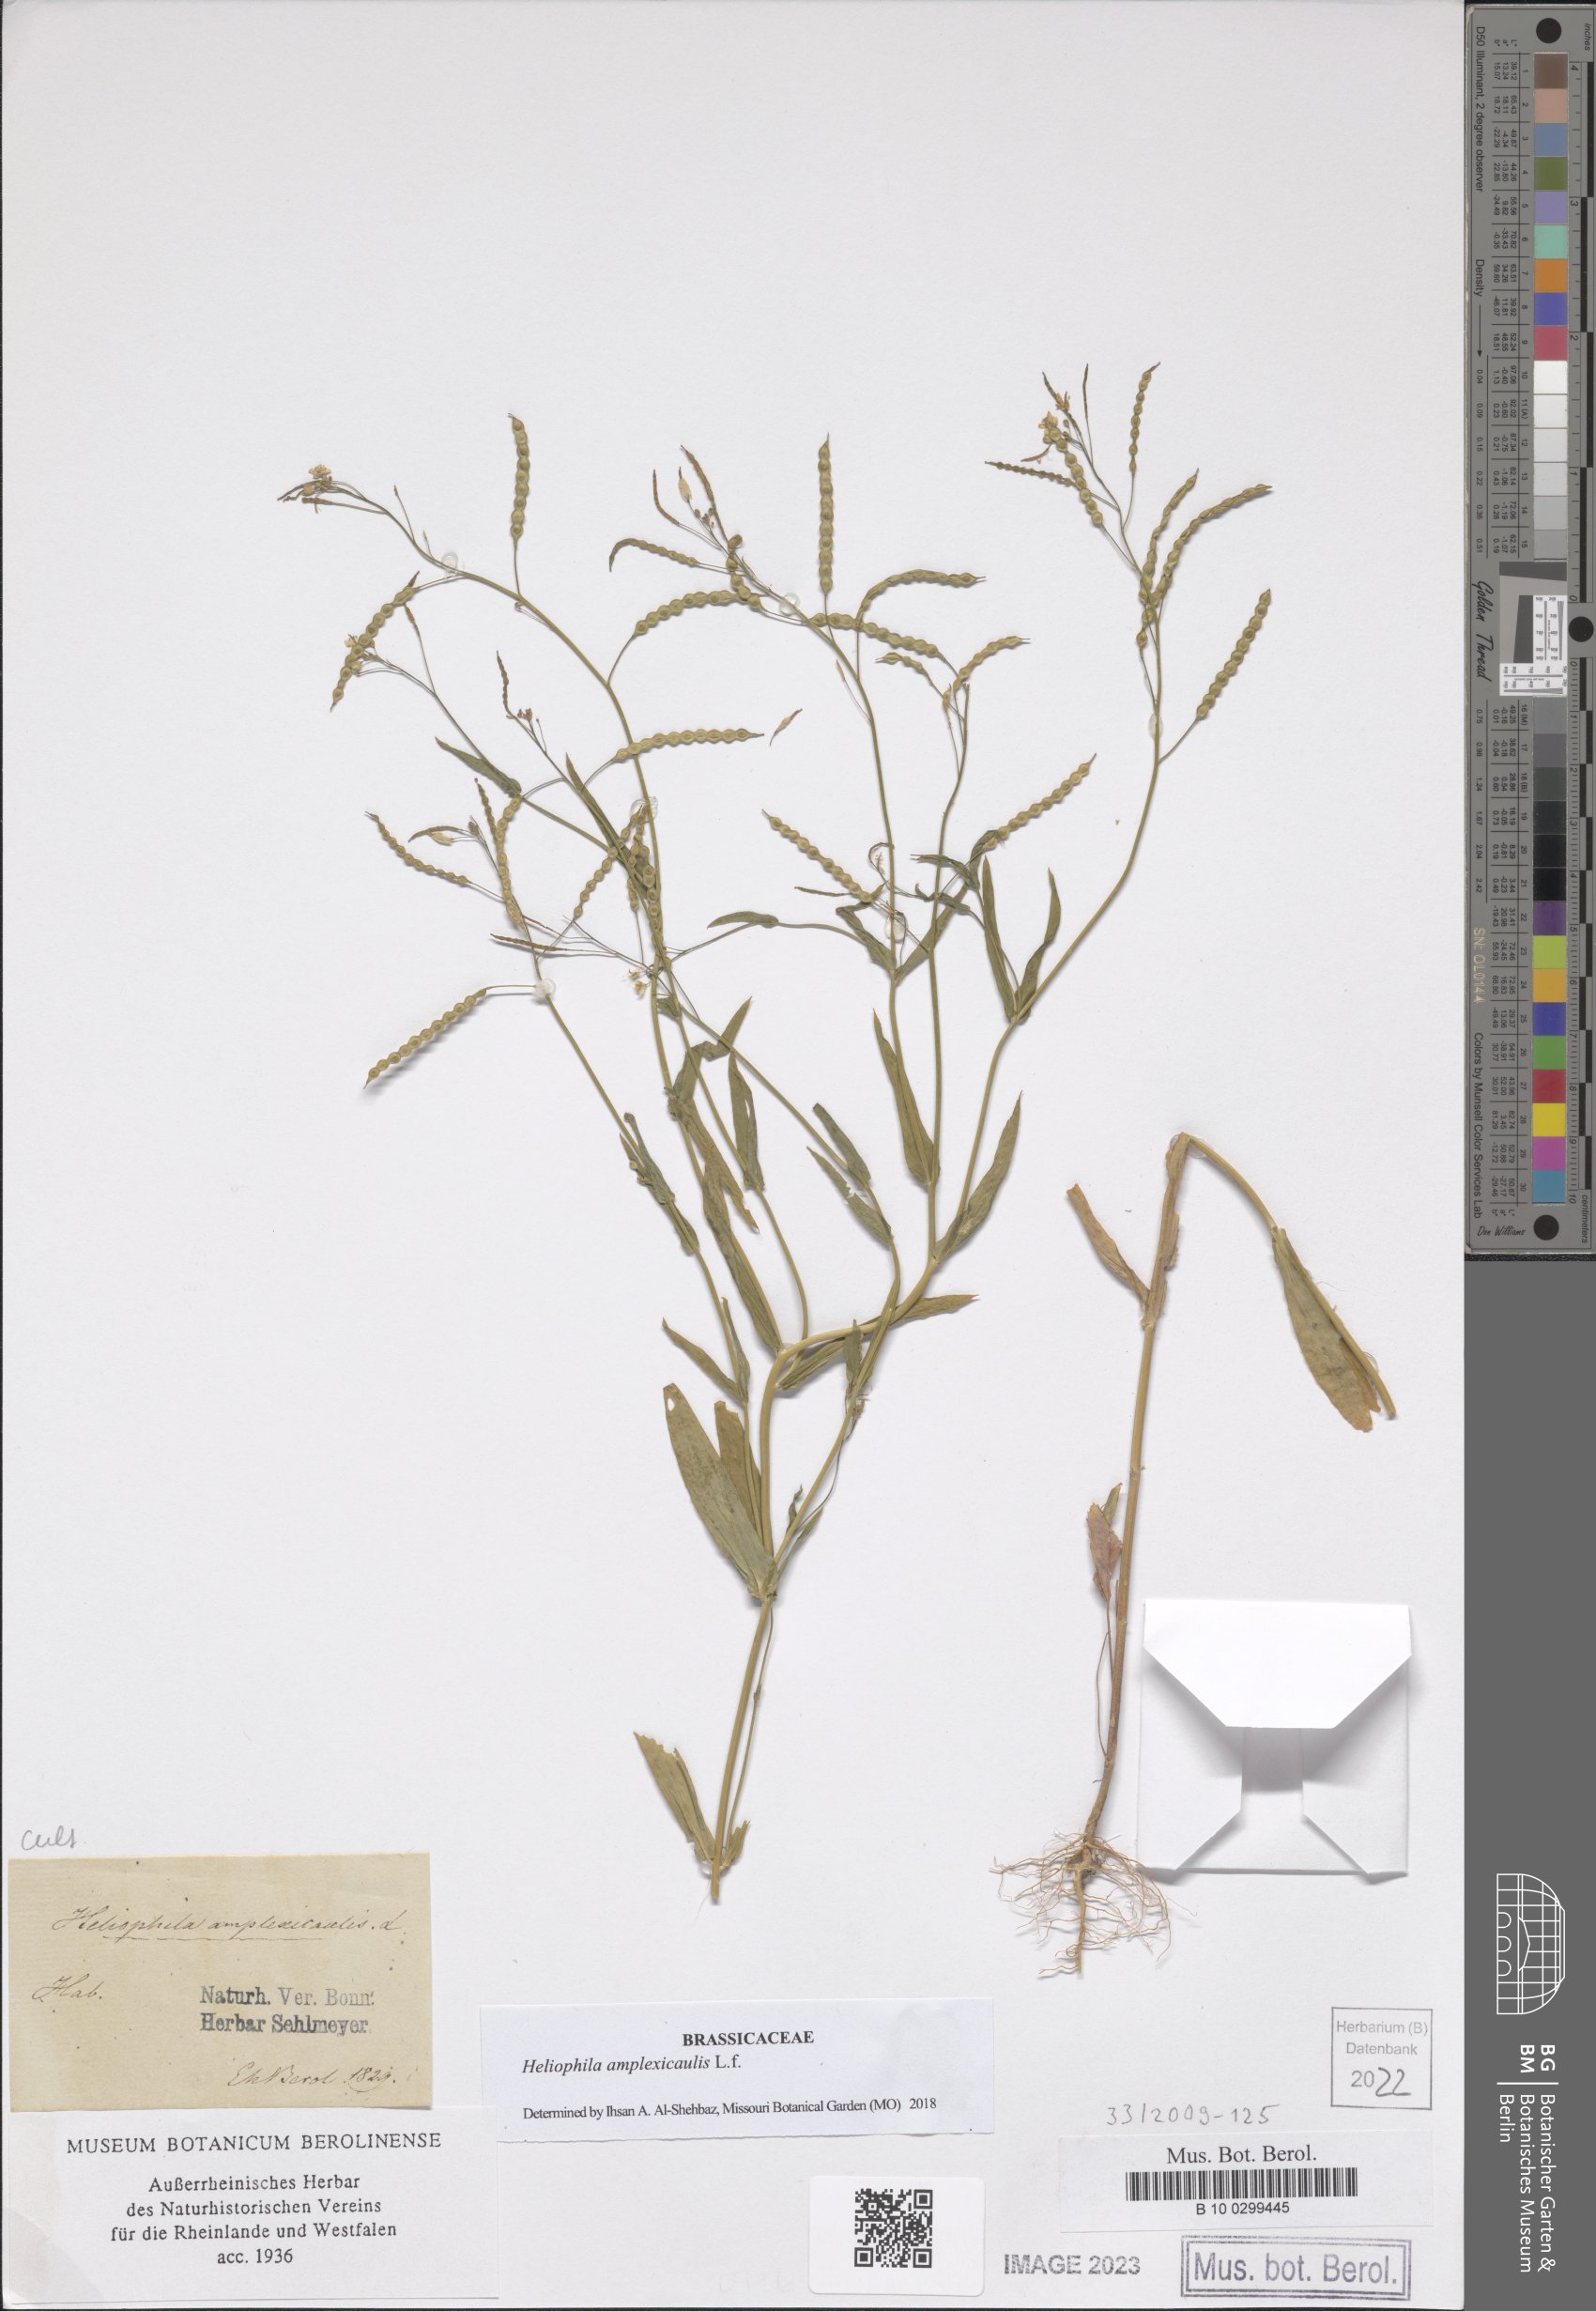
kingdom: Plantae
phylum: Tracheophyta
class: Magnoliopsida
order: Brassicales
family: Brassicaceae
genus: Heliophila
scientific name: Heliophila amplexicaulis
